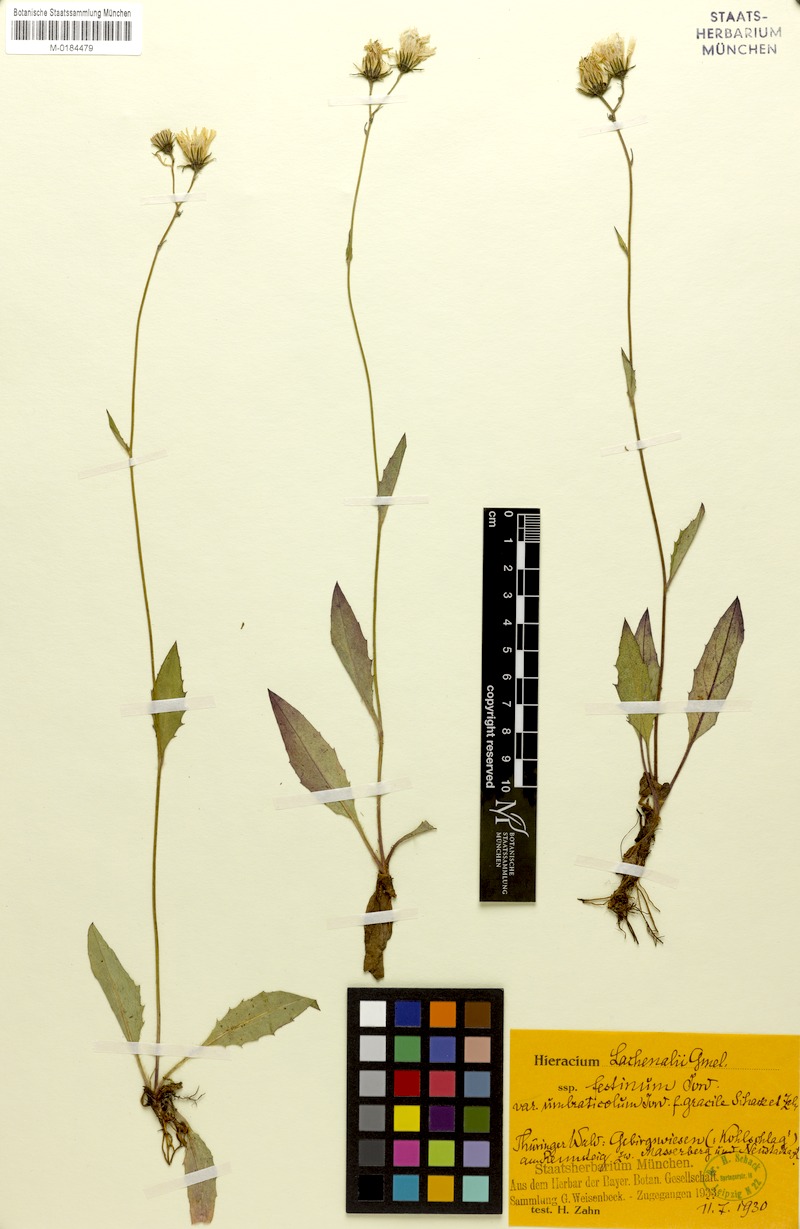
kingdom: Plantae
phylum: Tracheophyta
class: Magnoliopsida
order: Asterales
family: Asteraceae
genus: Hieracium
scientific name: Hieracium lachenalii
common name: Common hawkweed
